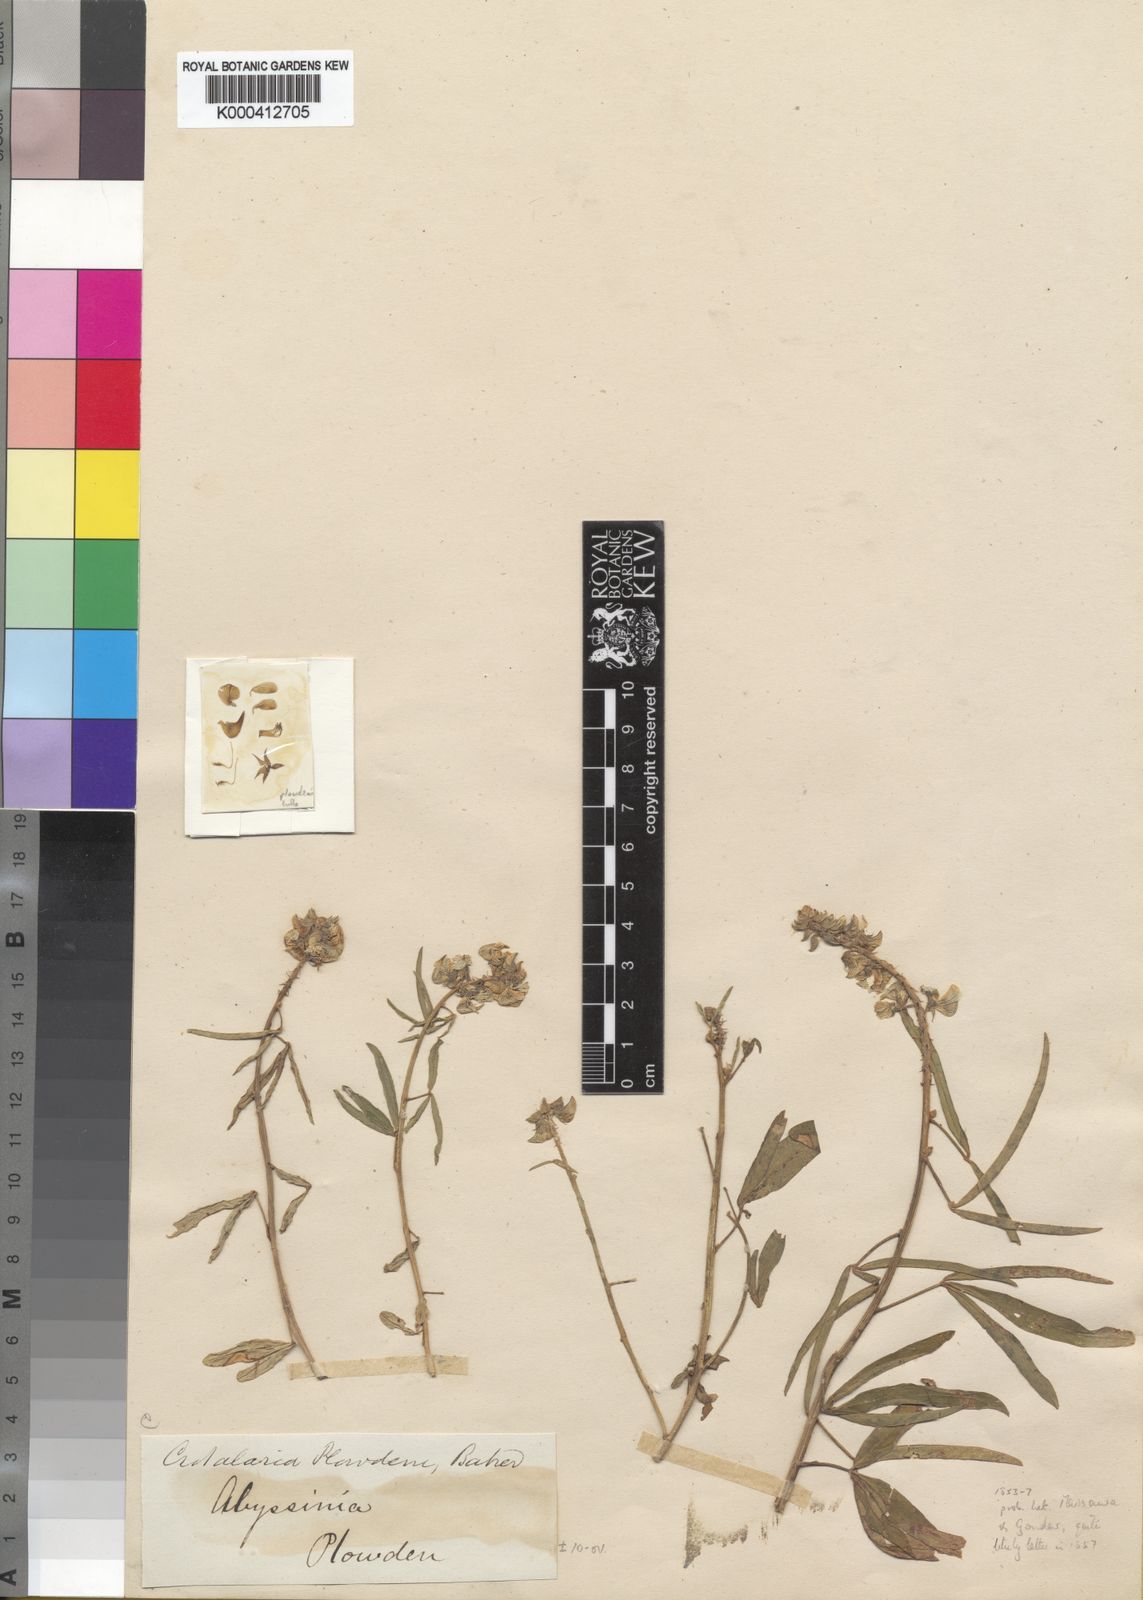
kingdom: Plantae
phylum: Tracheophyta
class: Magnoliopsida
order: Fabales
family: Fabaceae
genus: Crotalaria
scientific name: Crotalaria plowdenii
